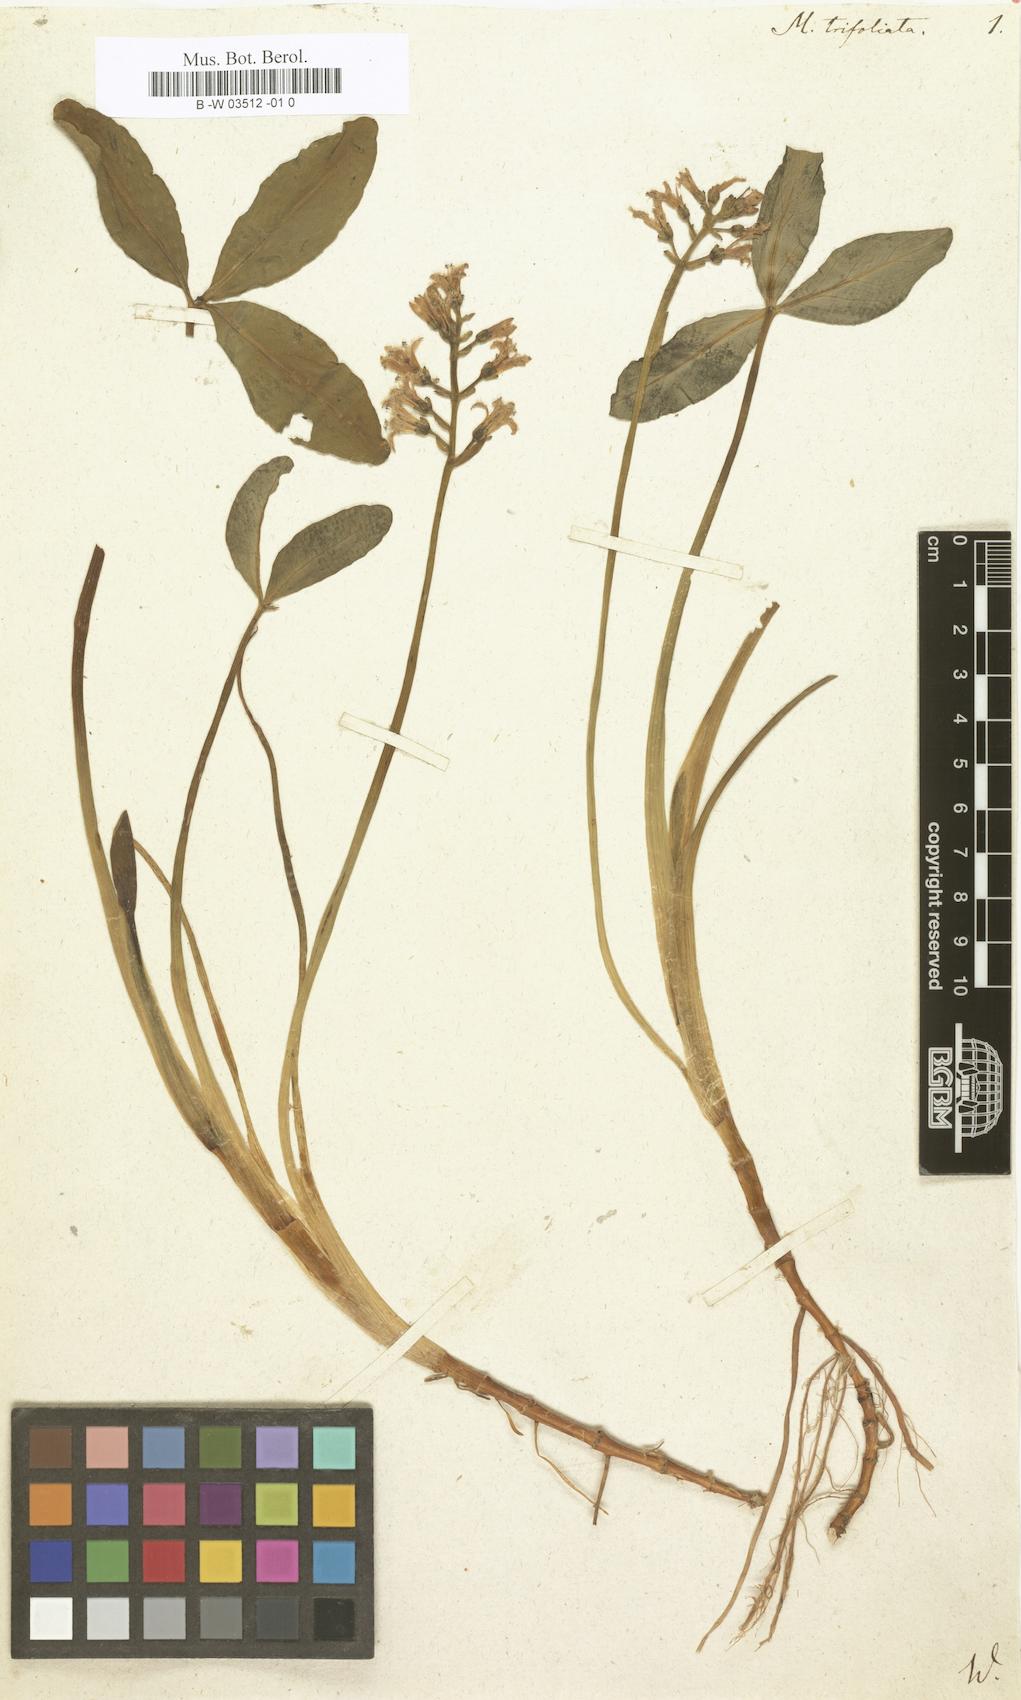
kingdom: Plantae
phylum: Tracheophyta
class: Magnoliopsida
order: Asterales
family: Menyanthaceae
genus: Menyanthes
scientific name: Menyanthes trifoliata
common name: Bogbean
